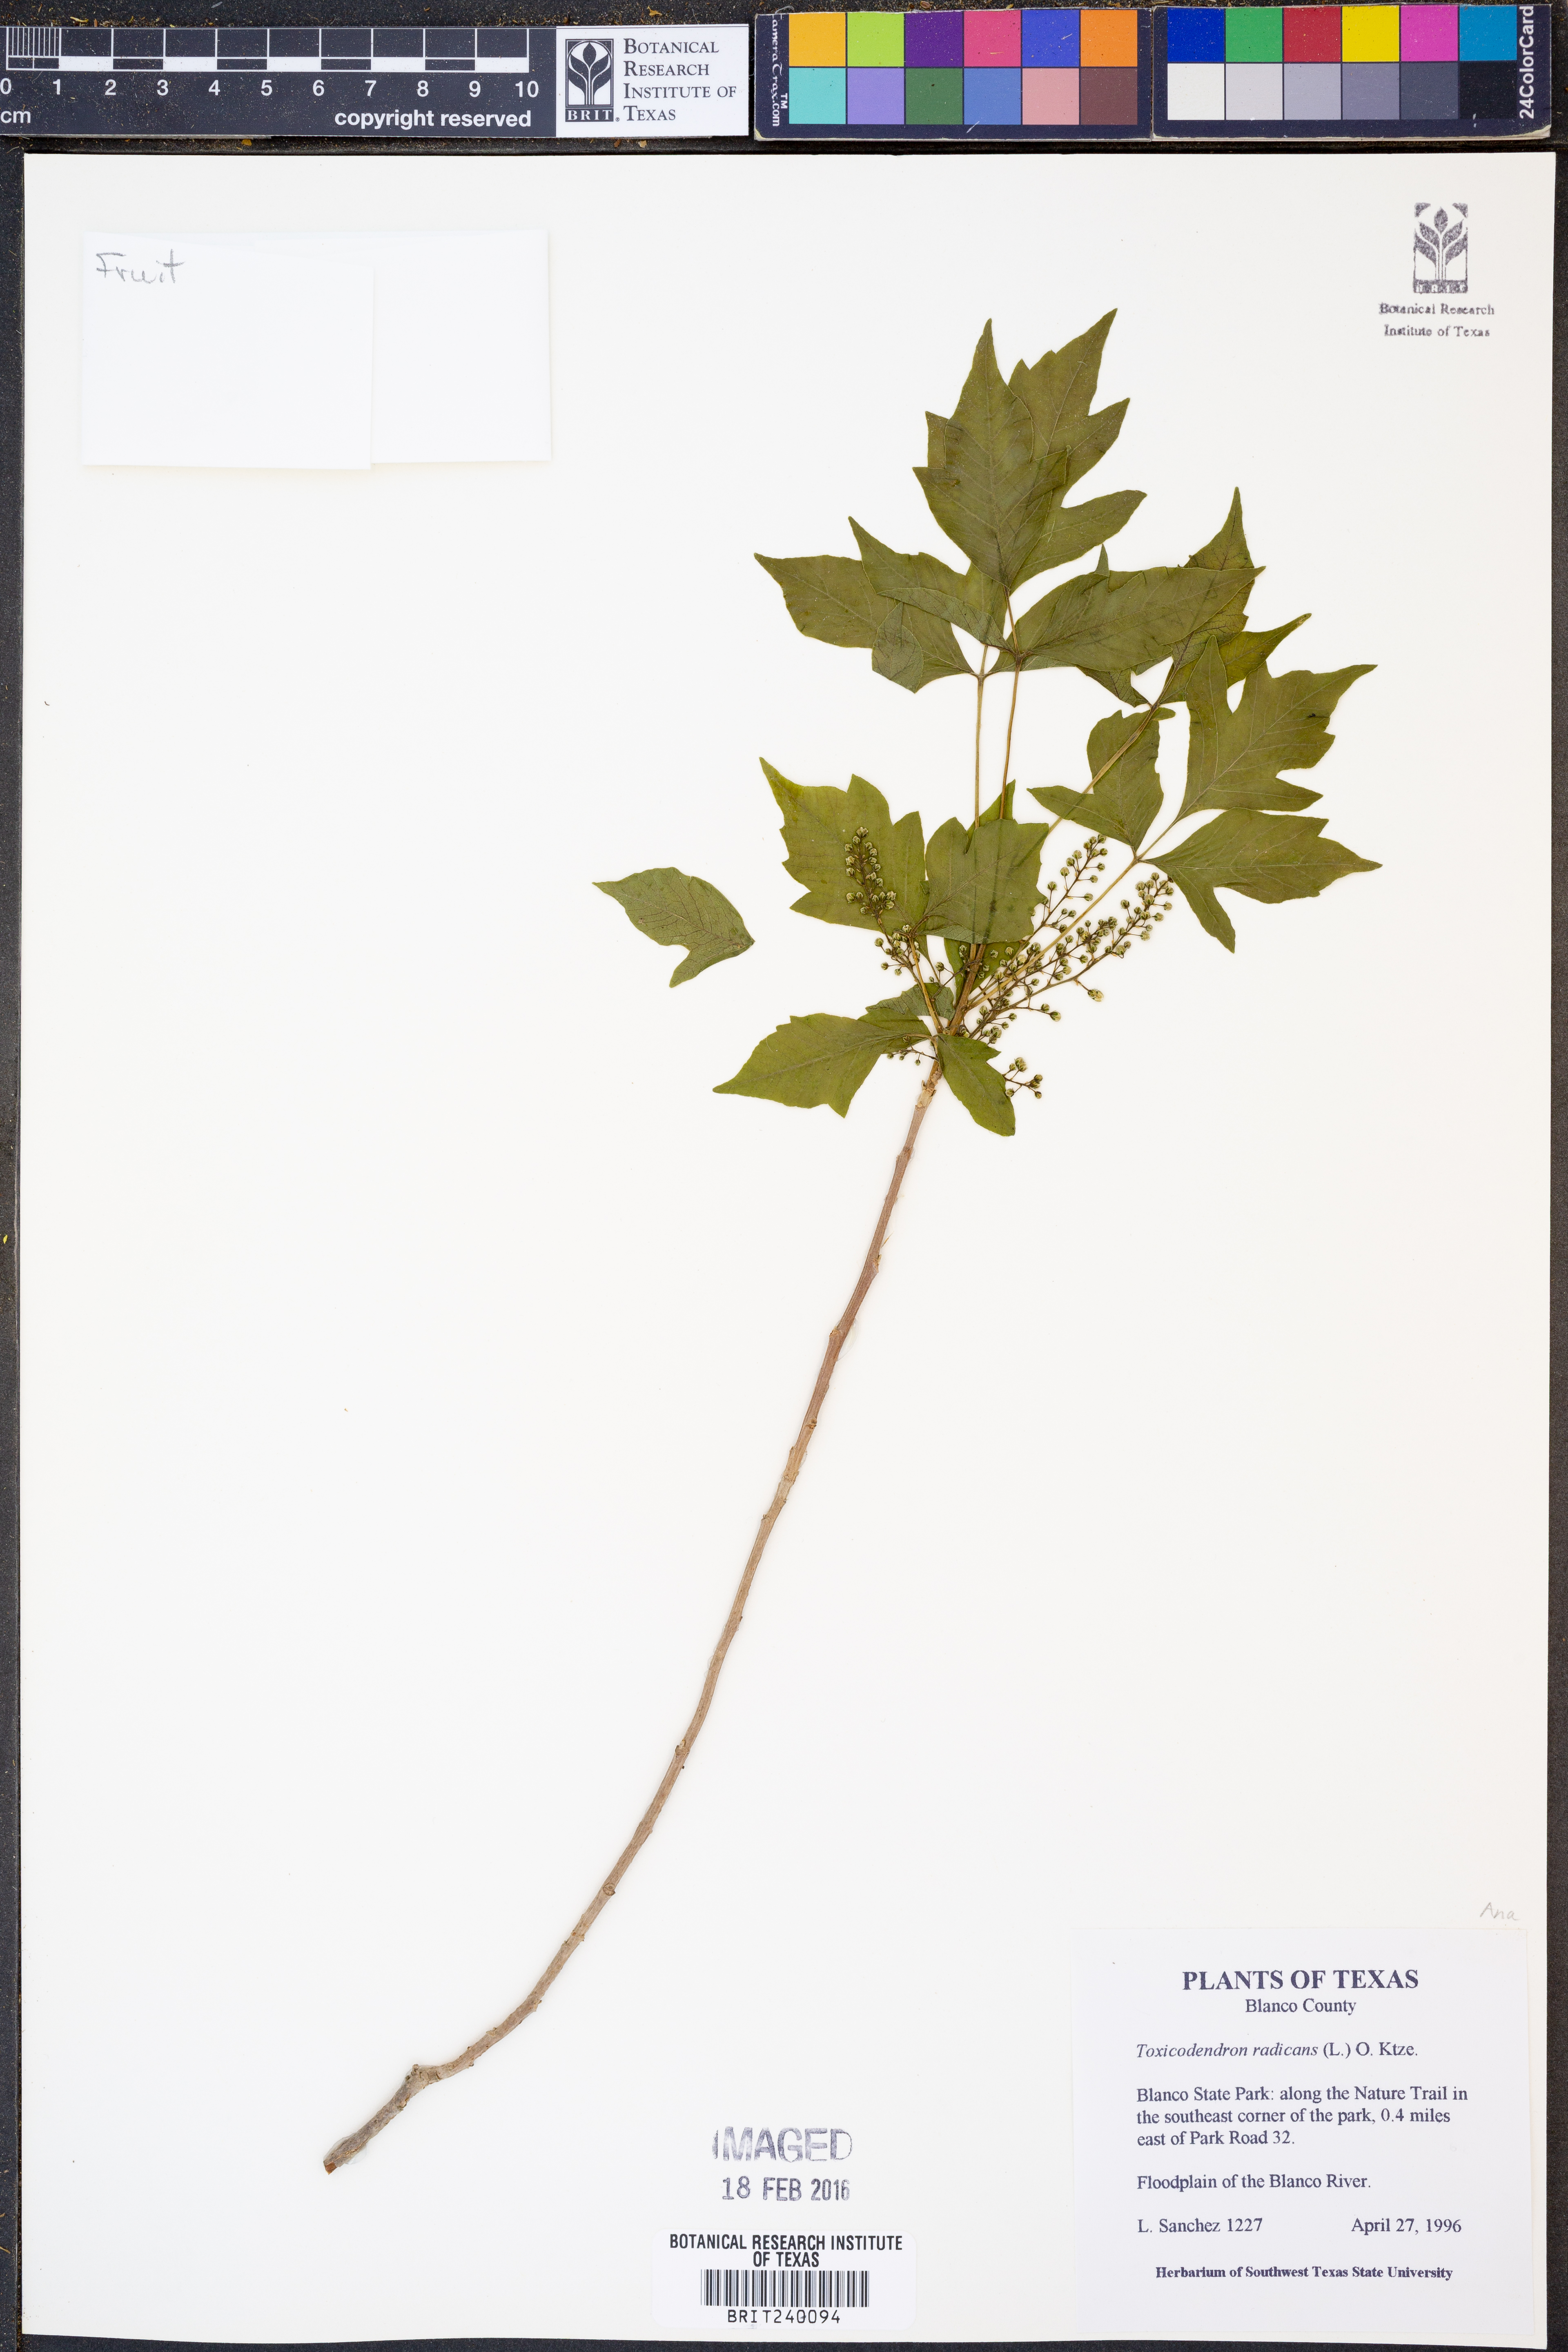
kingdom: Plantae
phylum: Tracheophyta
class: Magnoliopsida
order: Sapindales
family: Anacardiaceae
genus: Toxicodendron
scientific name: Toxicodendron radicans
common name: Poison ivy
